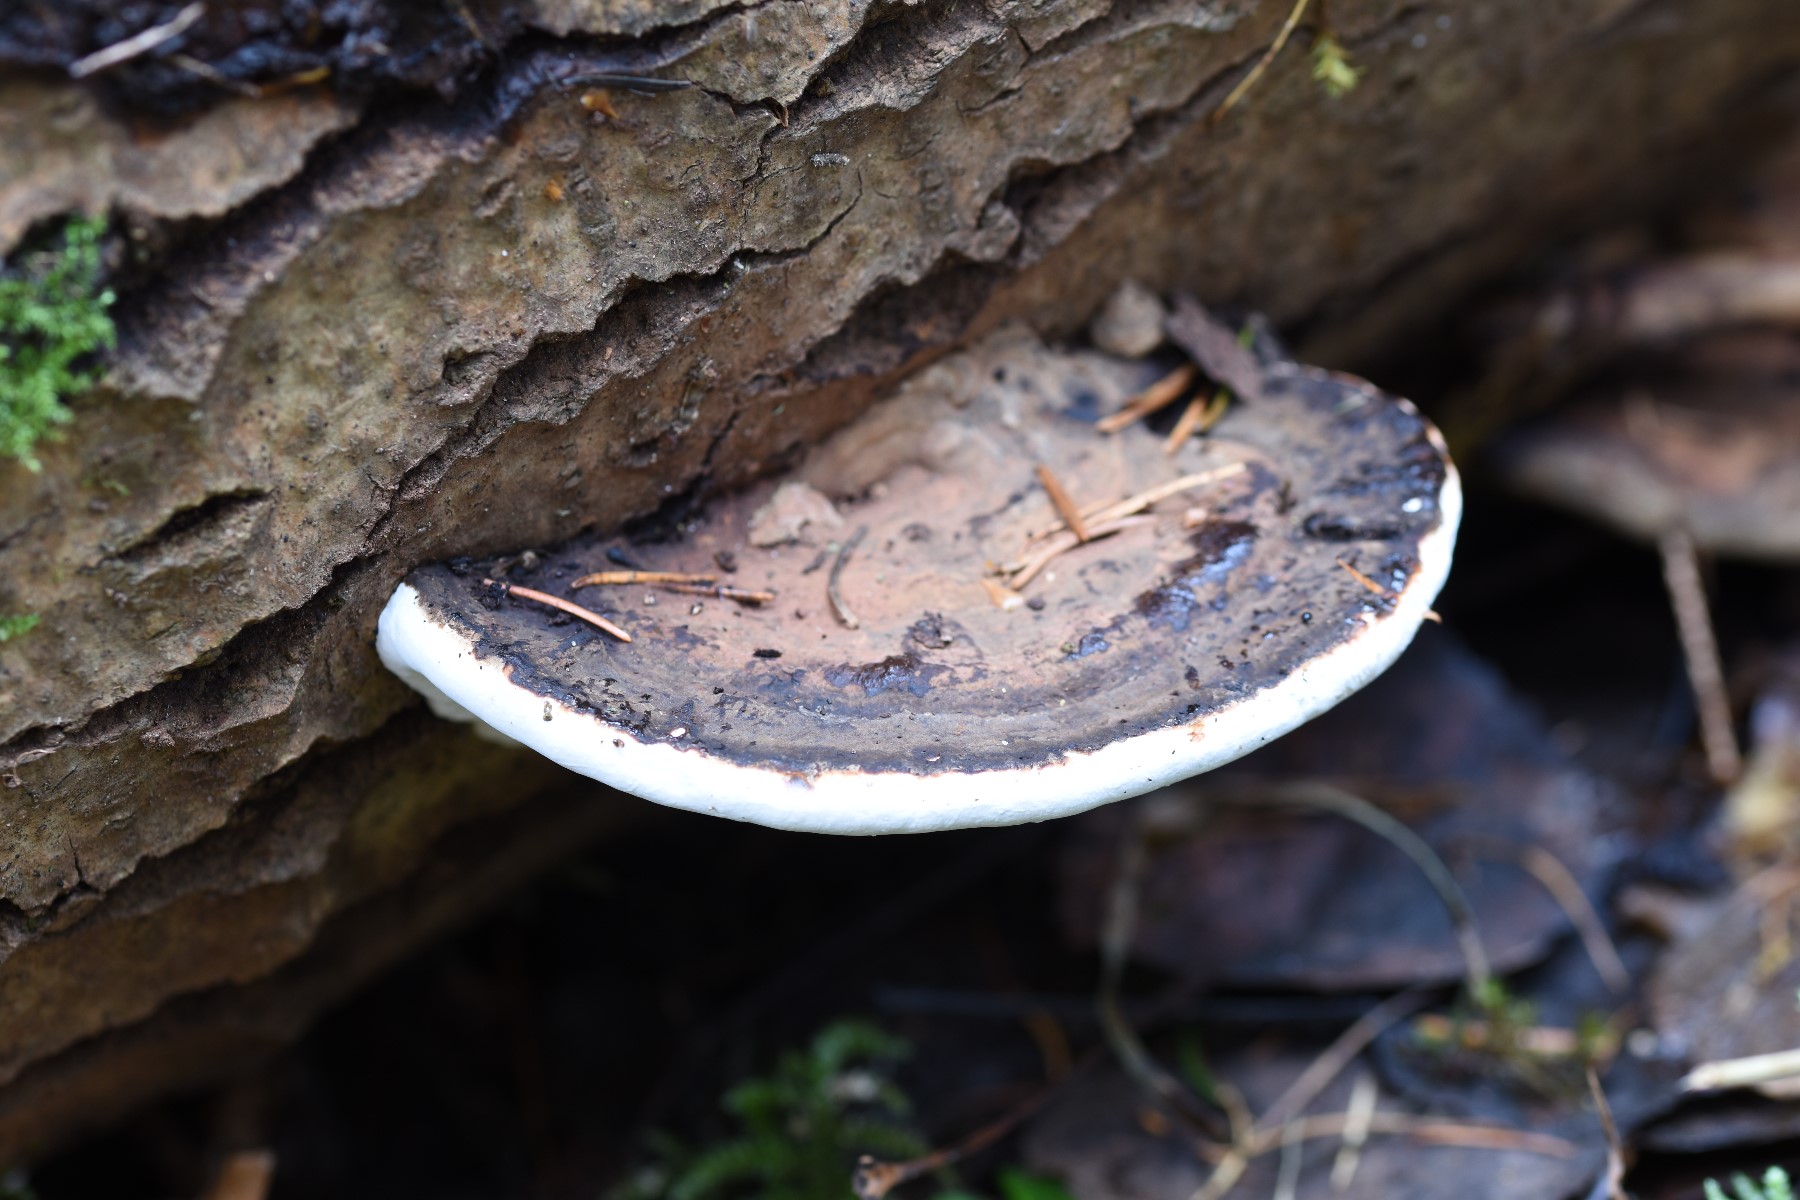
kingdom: Fungi
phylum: Basidiomycota
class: Agaricomycetes
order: Polyporales
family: Polyporaceae
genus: Ganoderma
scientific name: Ganoderma applanatum
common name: flad lakporesvamp
